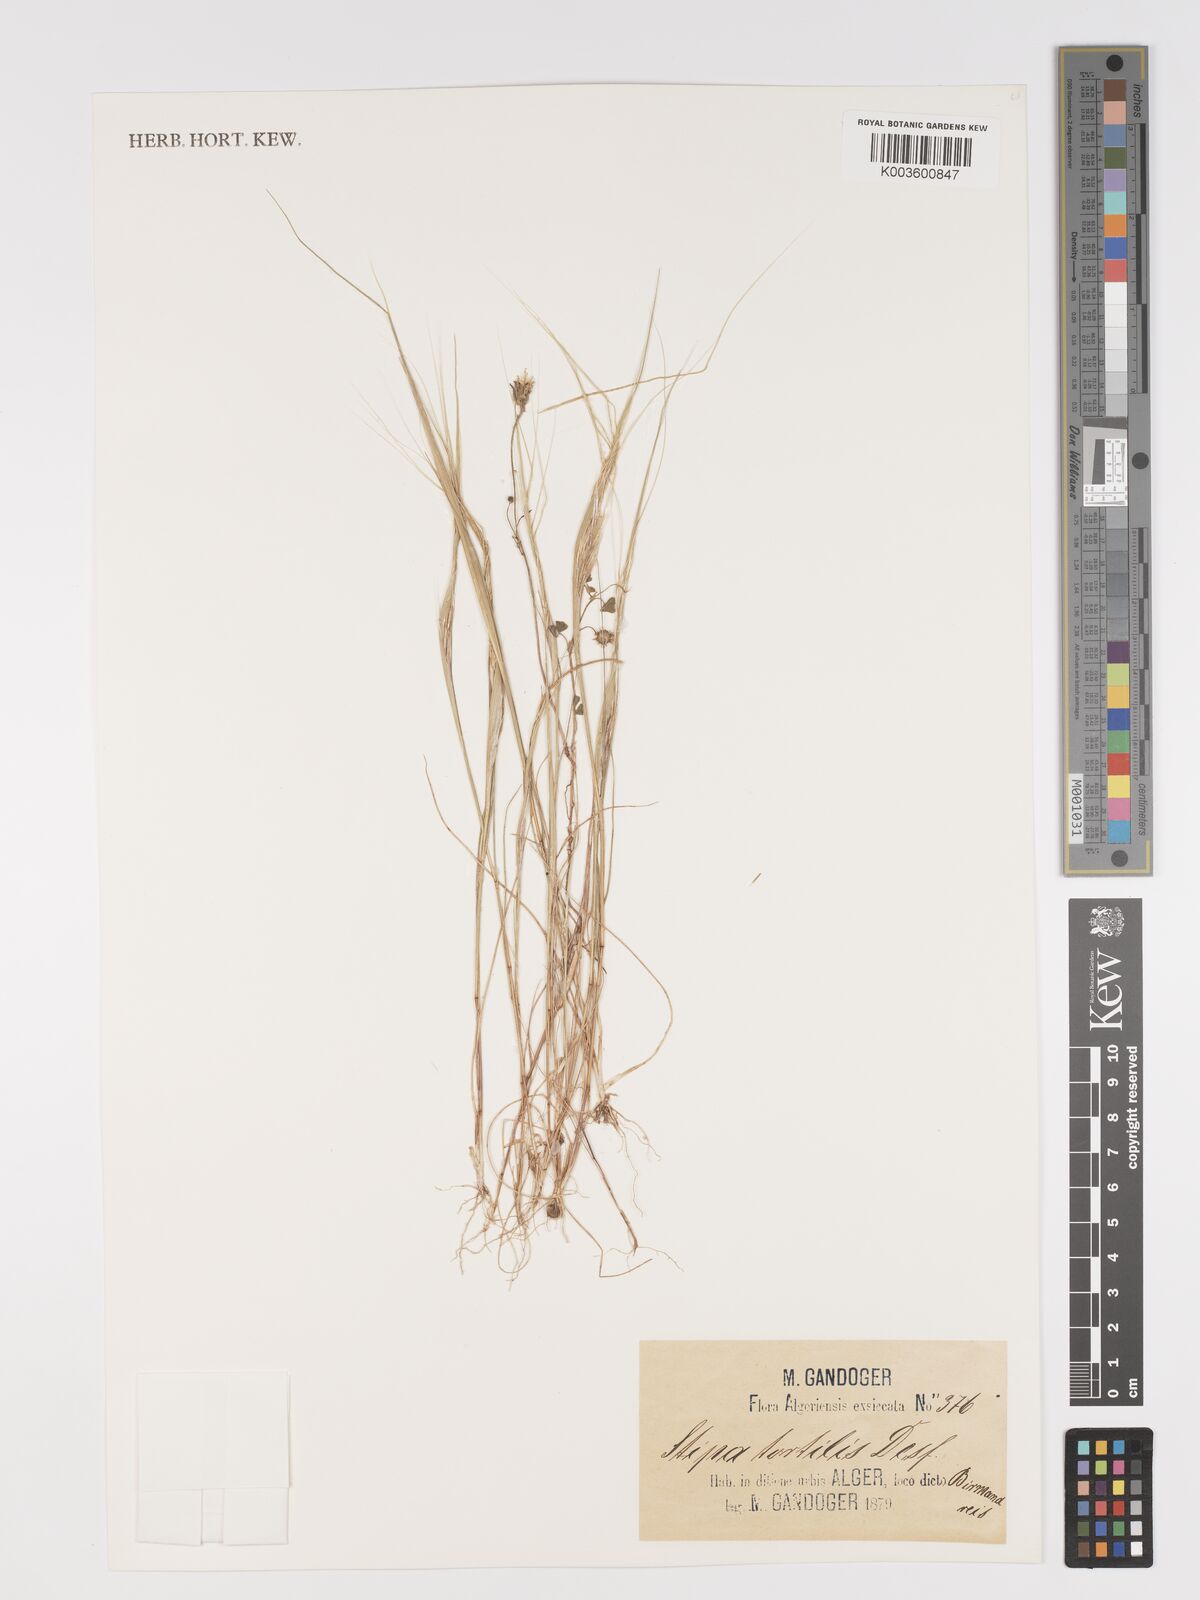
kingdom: Plantae
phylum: Tracheophyta
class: Liliopsida
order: Poales
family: Poaceae
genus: Stipellula
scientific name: Stipellula capensis
